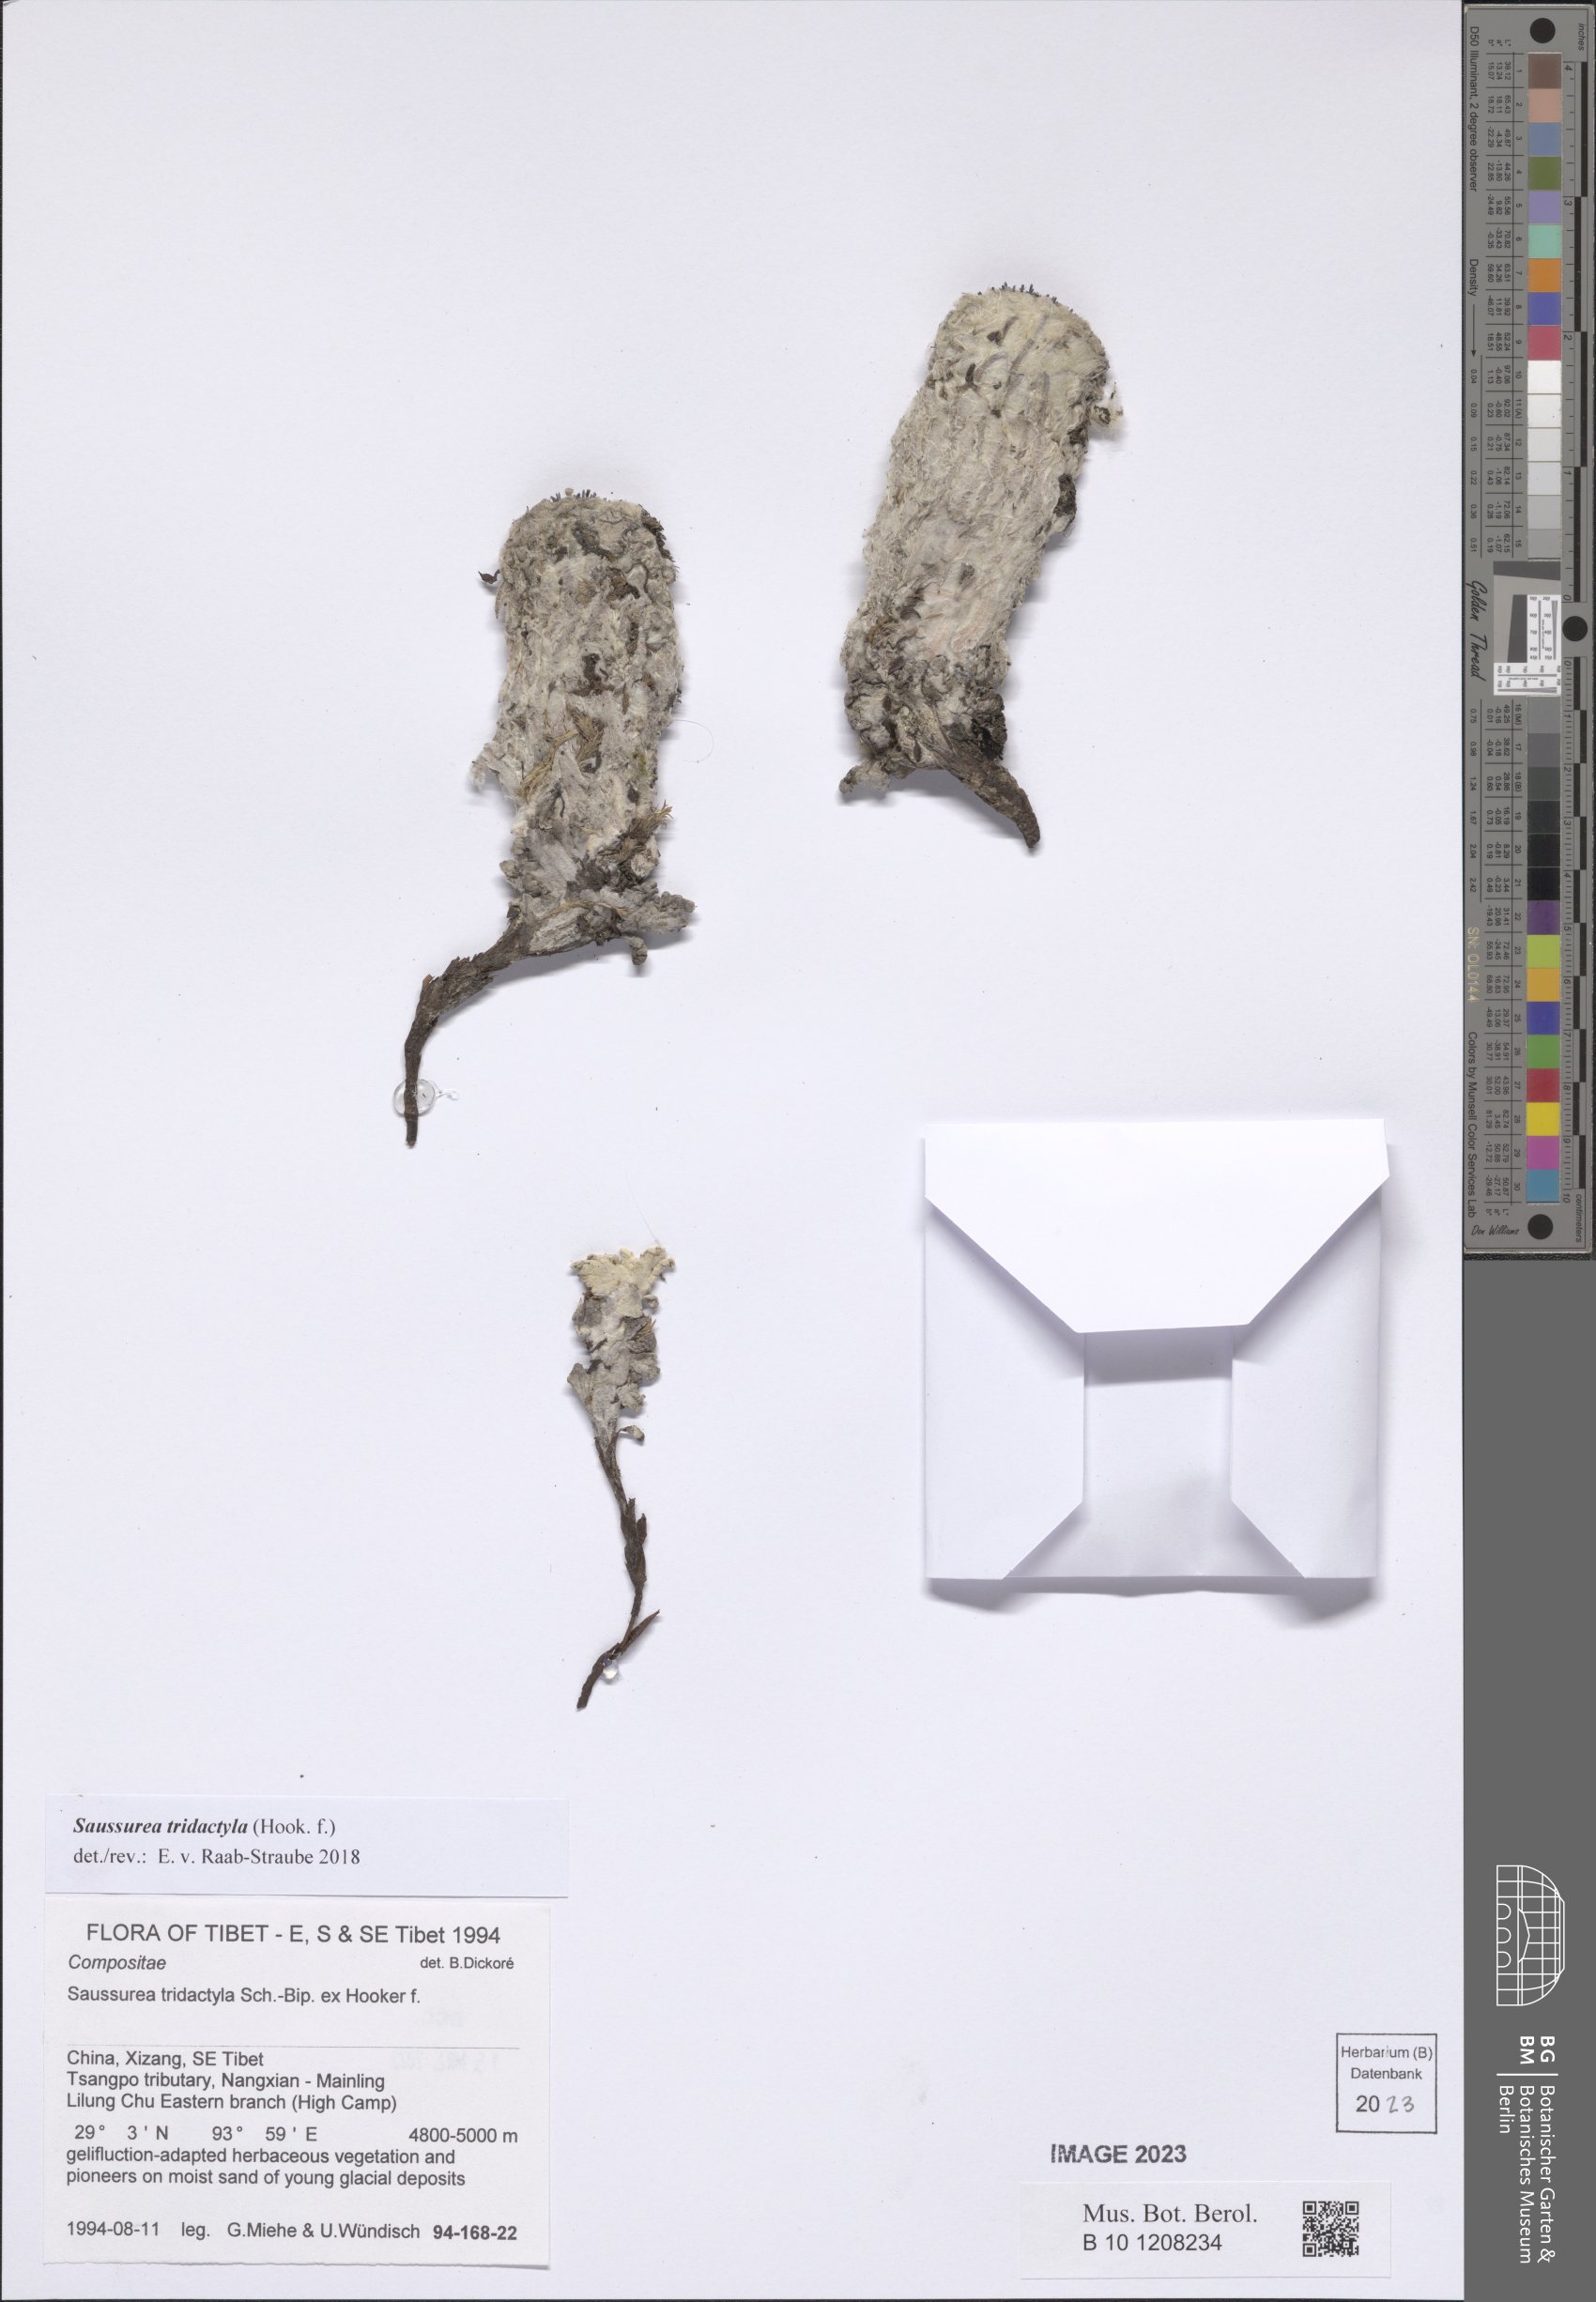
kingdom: Plantae
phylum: Tracheophyta
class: Magnoliopsida
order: Asterales
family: Asteraceae
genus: Saussurea
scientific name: Saussurea tridactyla
